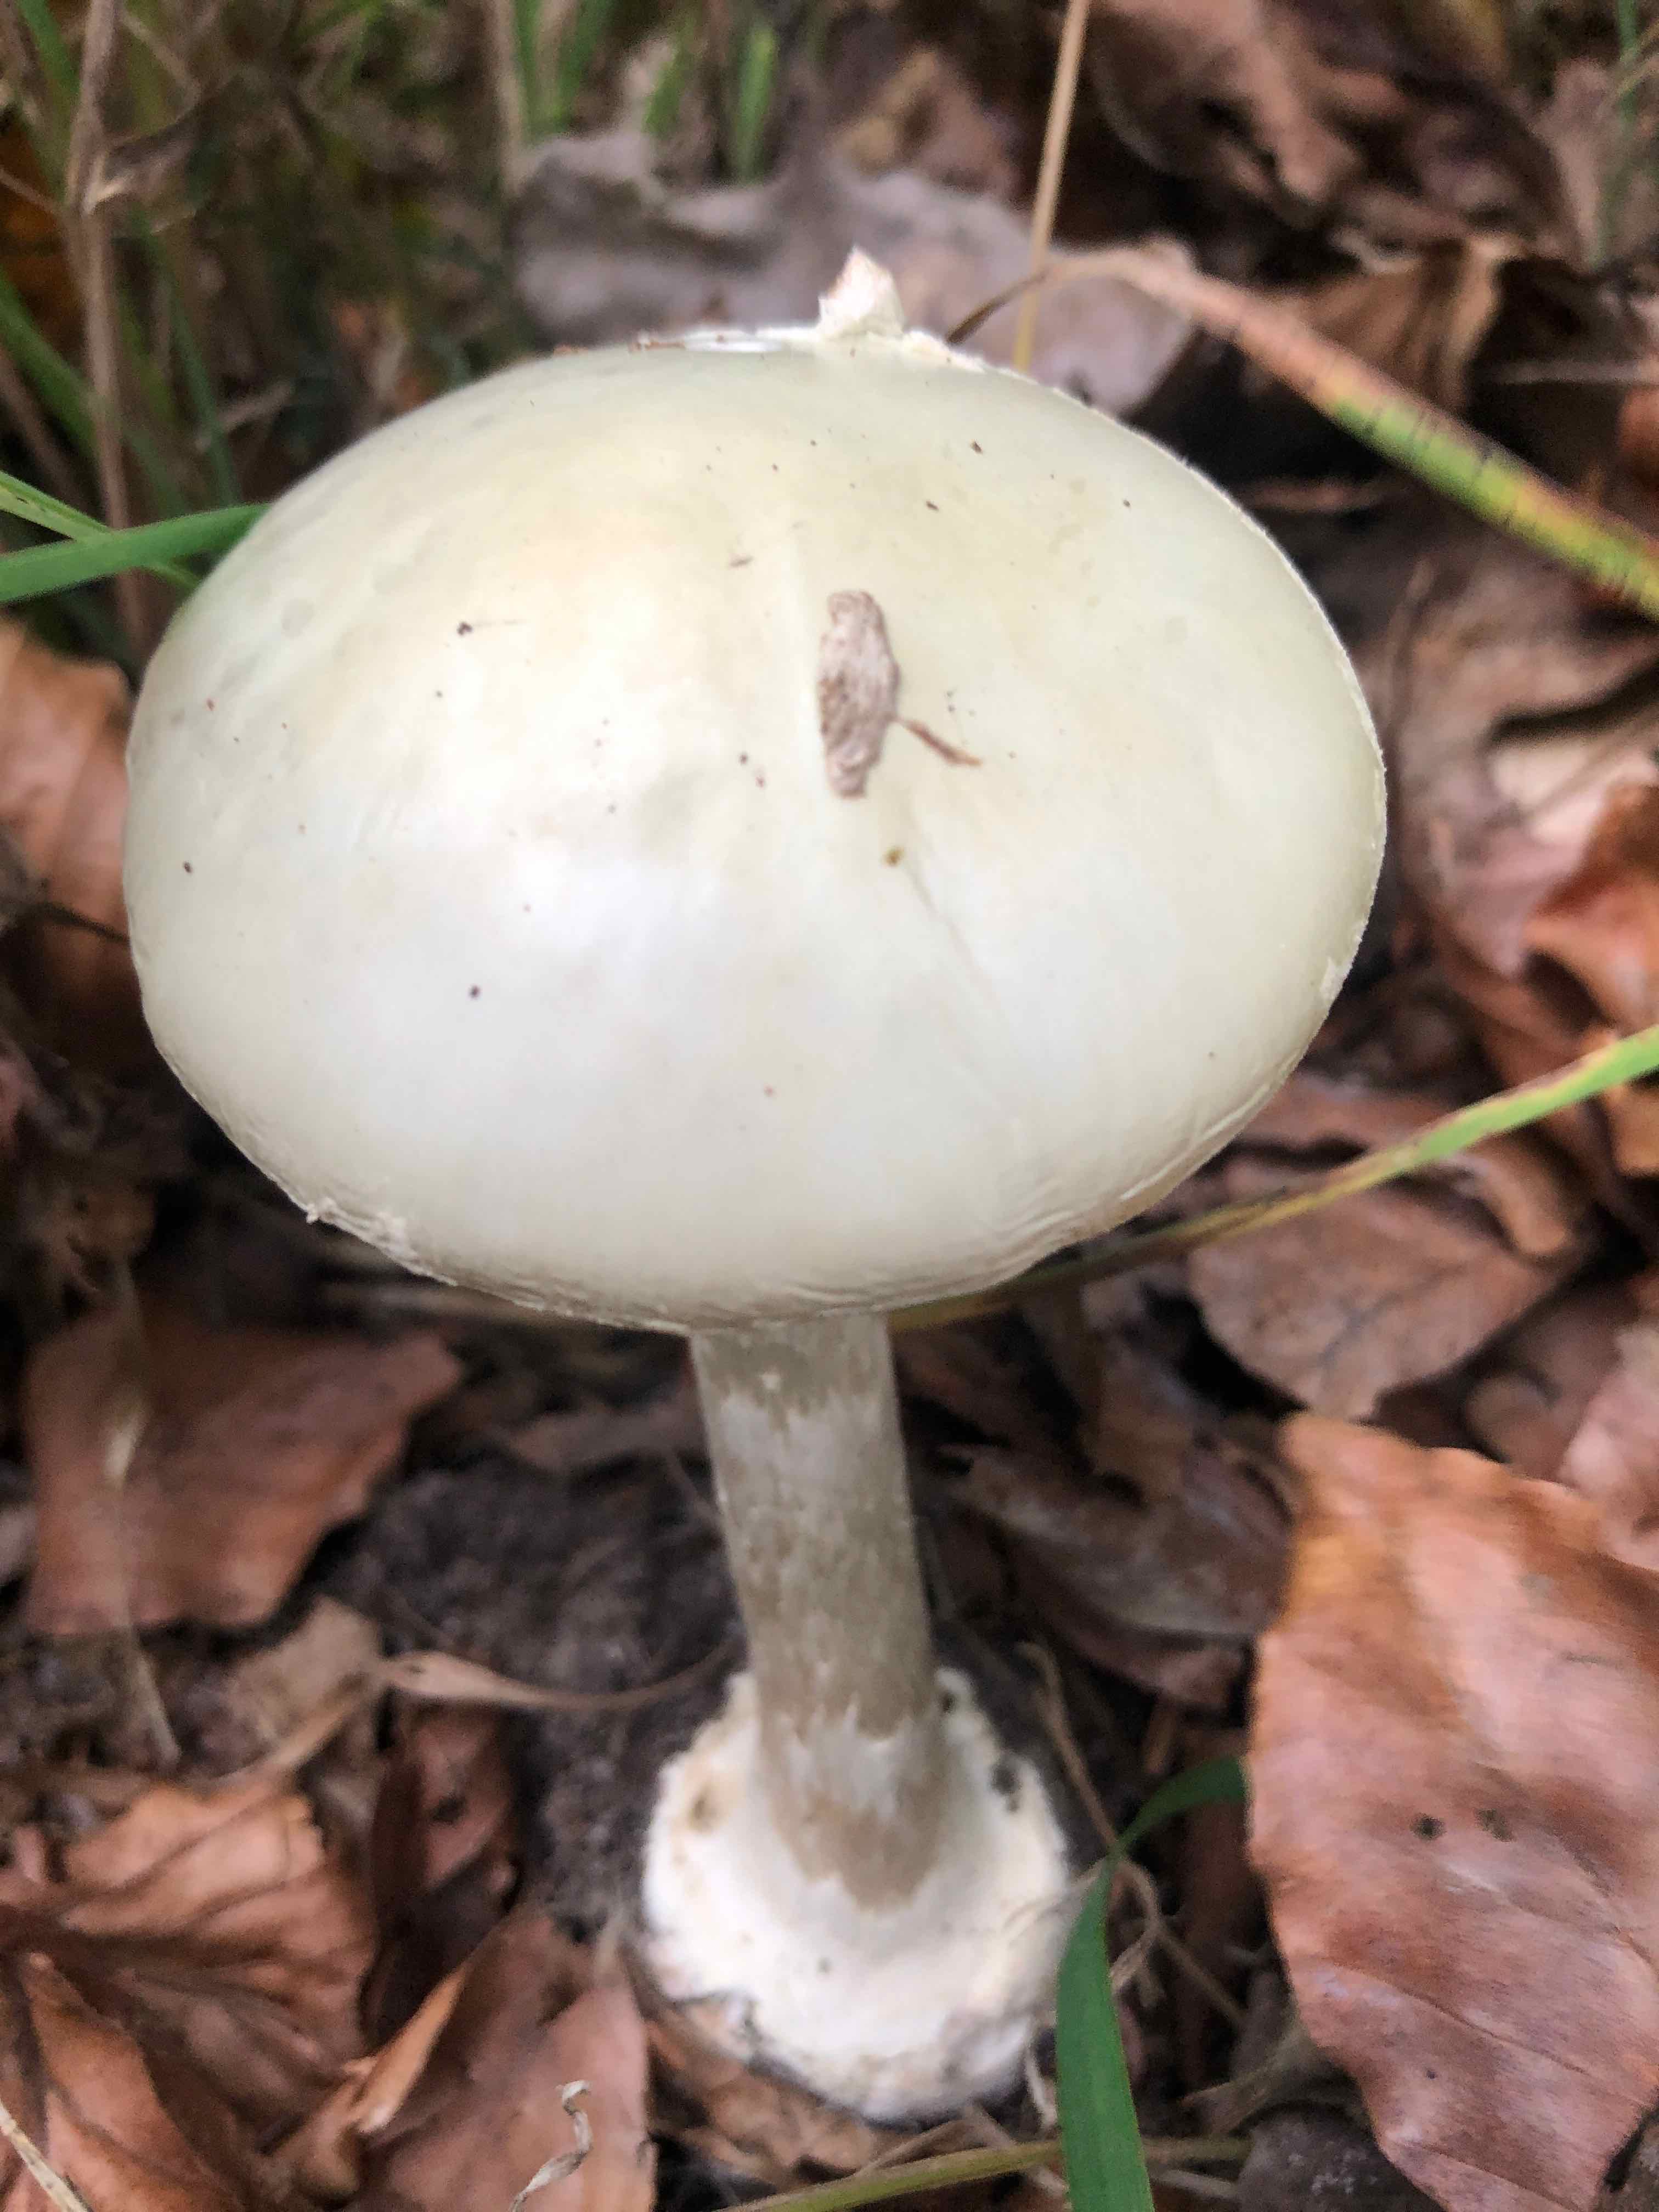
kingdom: Fungi
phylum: Basidiomycota
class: Agaricomycetes
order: Agaricales
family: Amanitaceae
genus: Amanita
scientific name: Amanita citrina
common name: kugleknoldet fluesvamp
